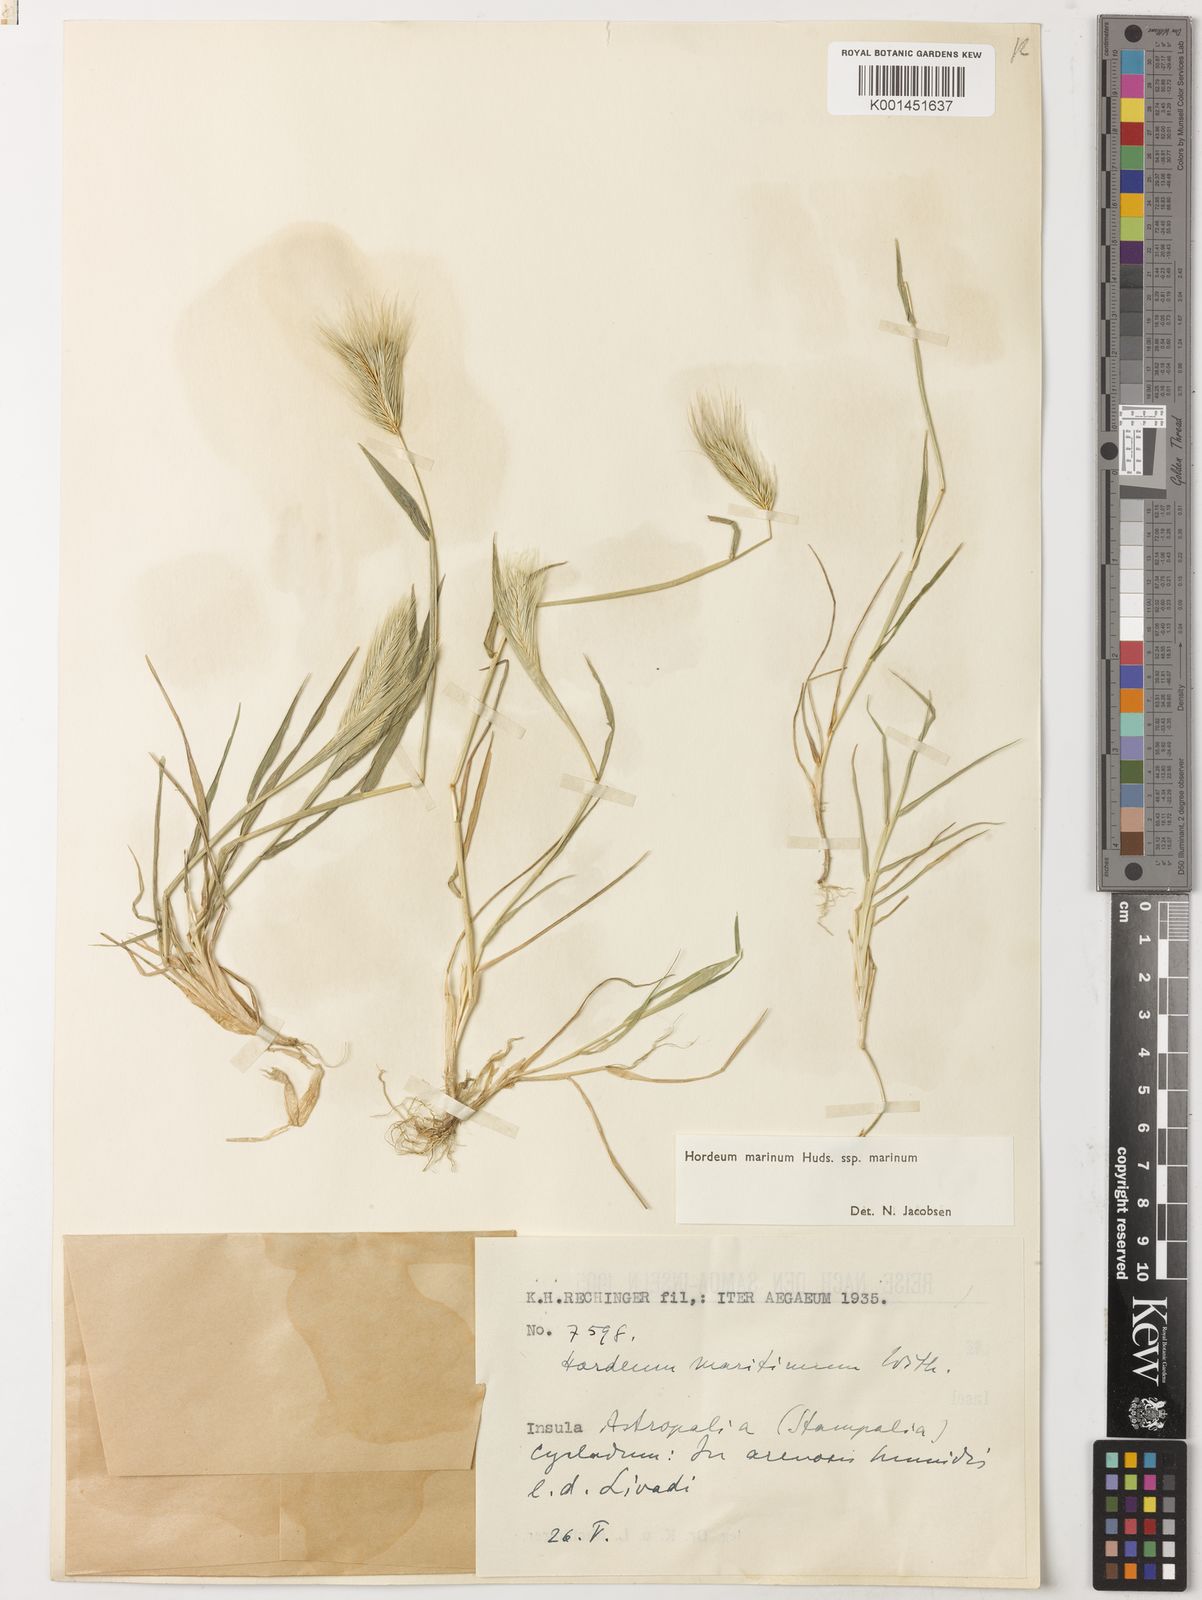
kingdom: Plantae
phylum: Tracheophyta
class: Liliopsida
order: Poales
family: Poaceae
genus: Hordeum
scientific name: Hordeum marinum
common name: Sea barley
